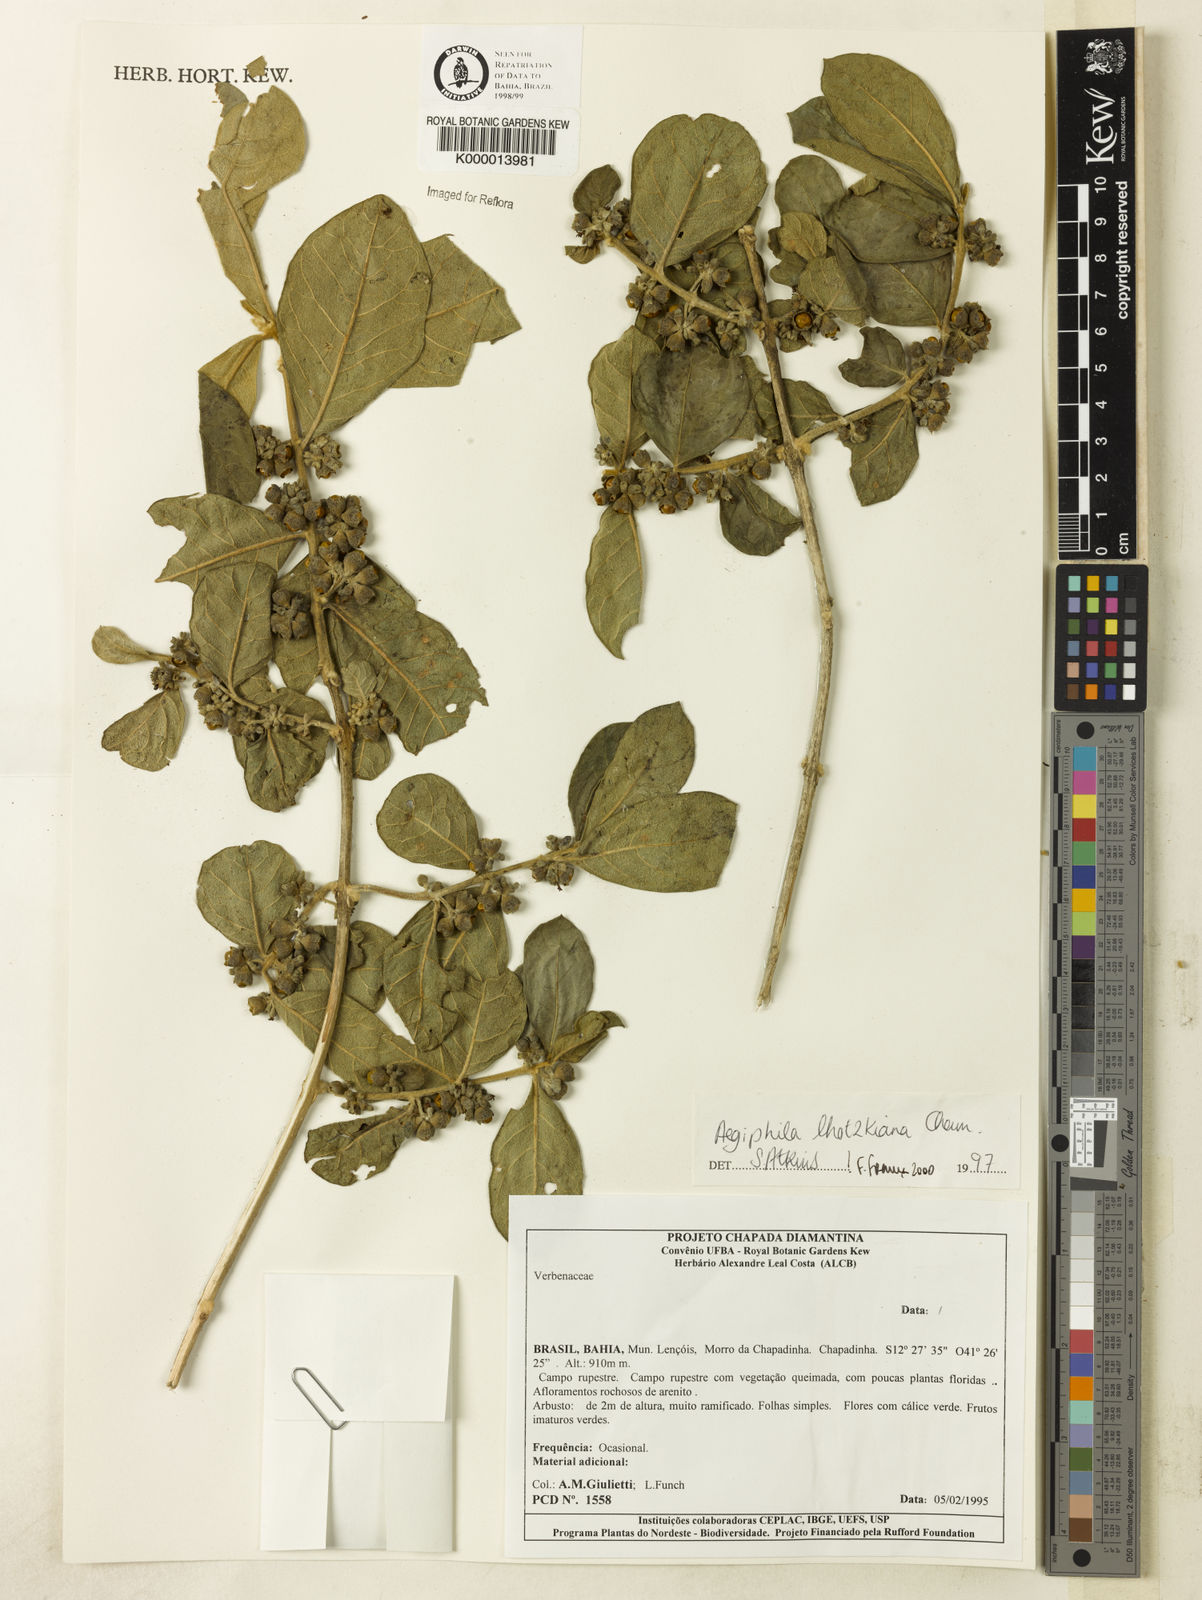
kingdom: Plantae
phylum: Tracheophyta
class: Magnoliopsida
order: Lamiales
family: Lamiaceae
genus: Aegiphila
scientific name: Aegiphila verticillata
